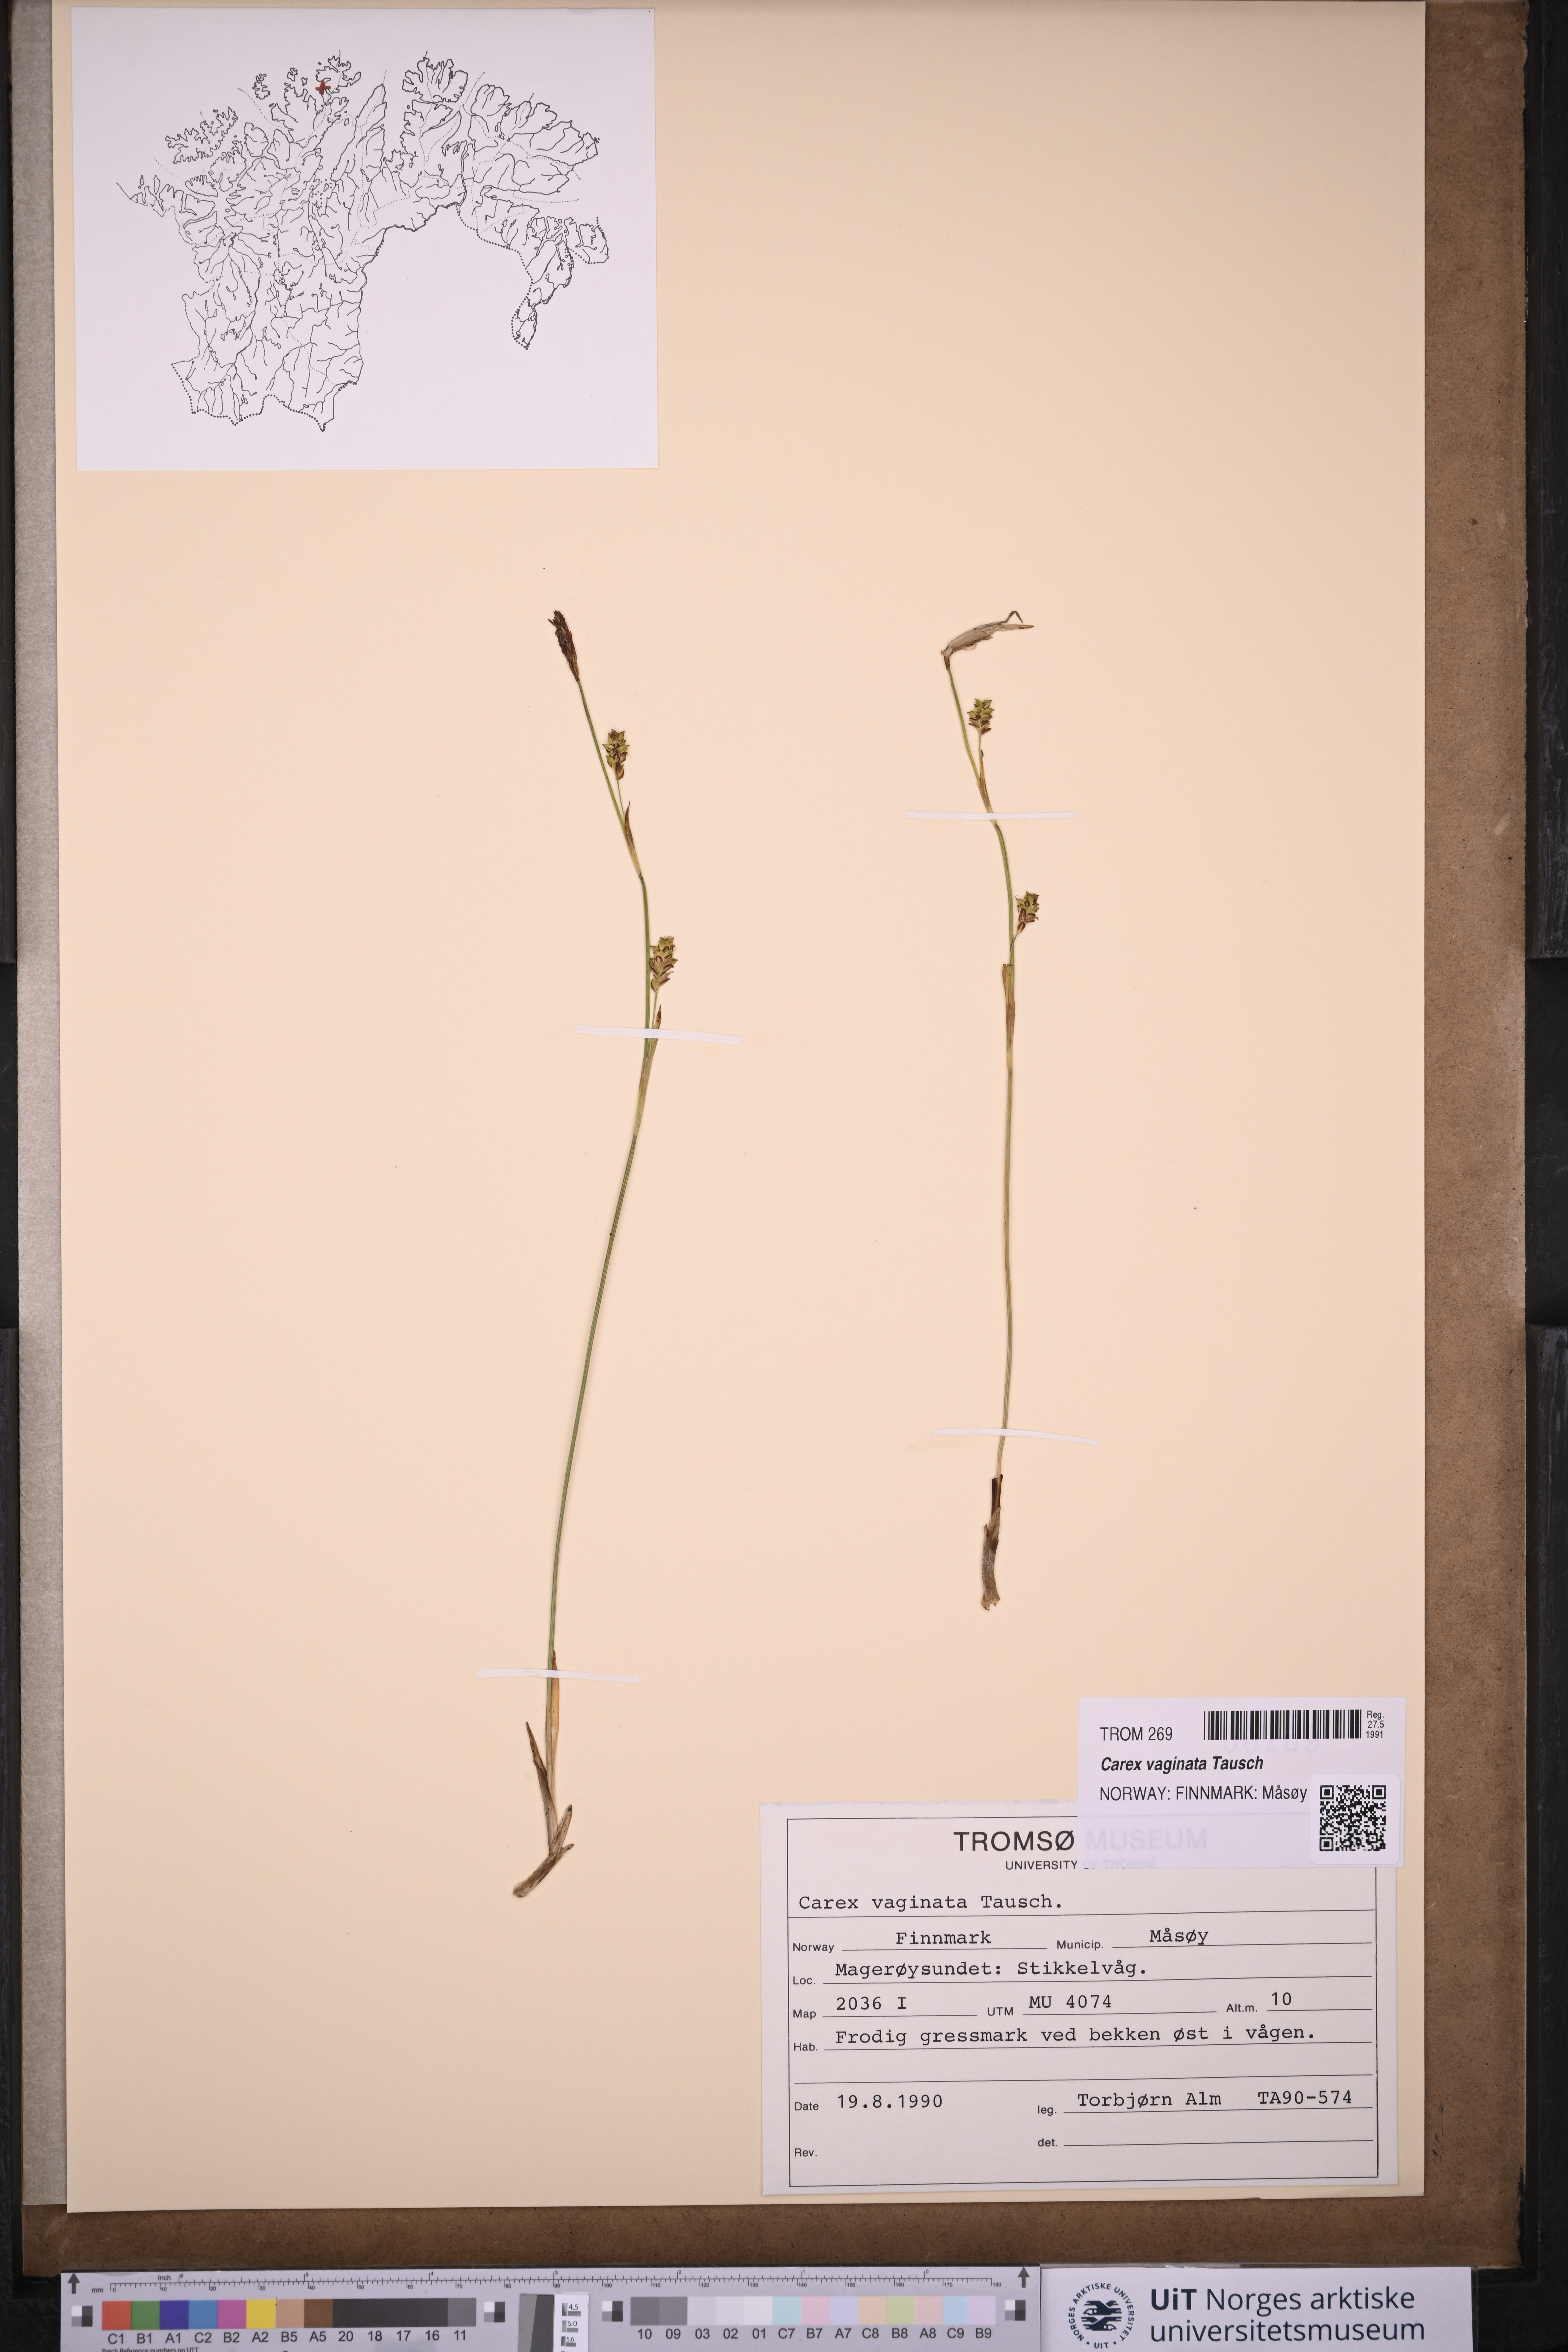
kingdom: Plantae
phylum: Tracheophyta
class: Liliopsida
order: Poales
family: Cyperaceae
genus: Carex
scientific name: Carex vaginata
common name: Sheathed sedge
